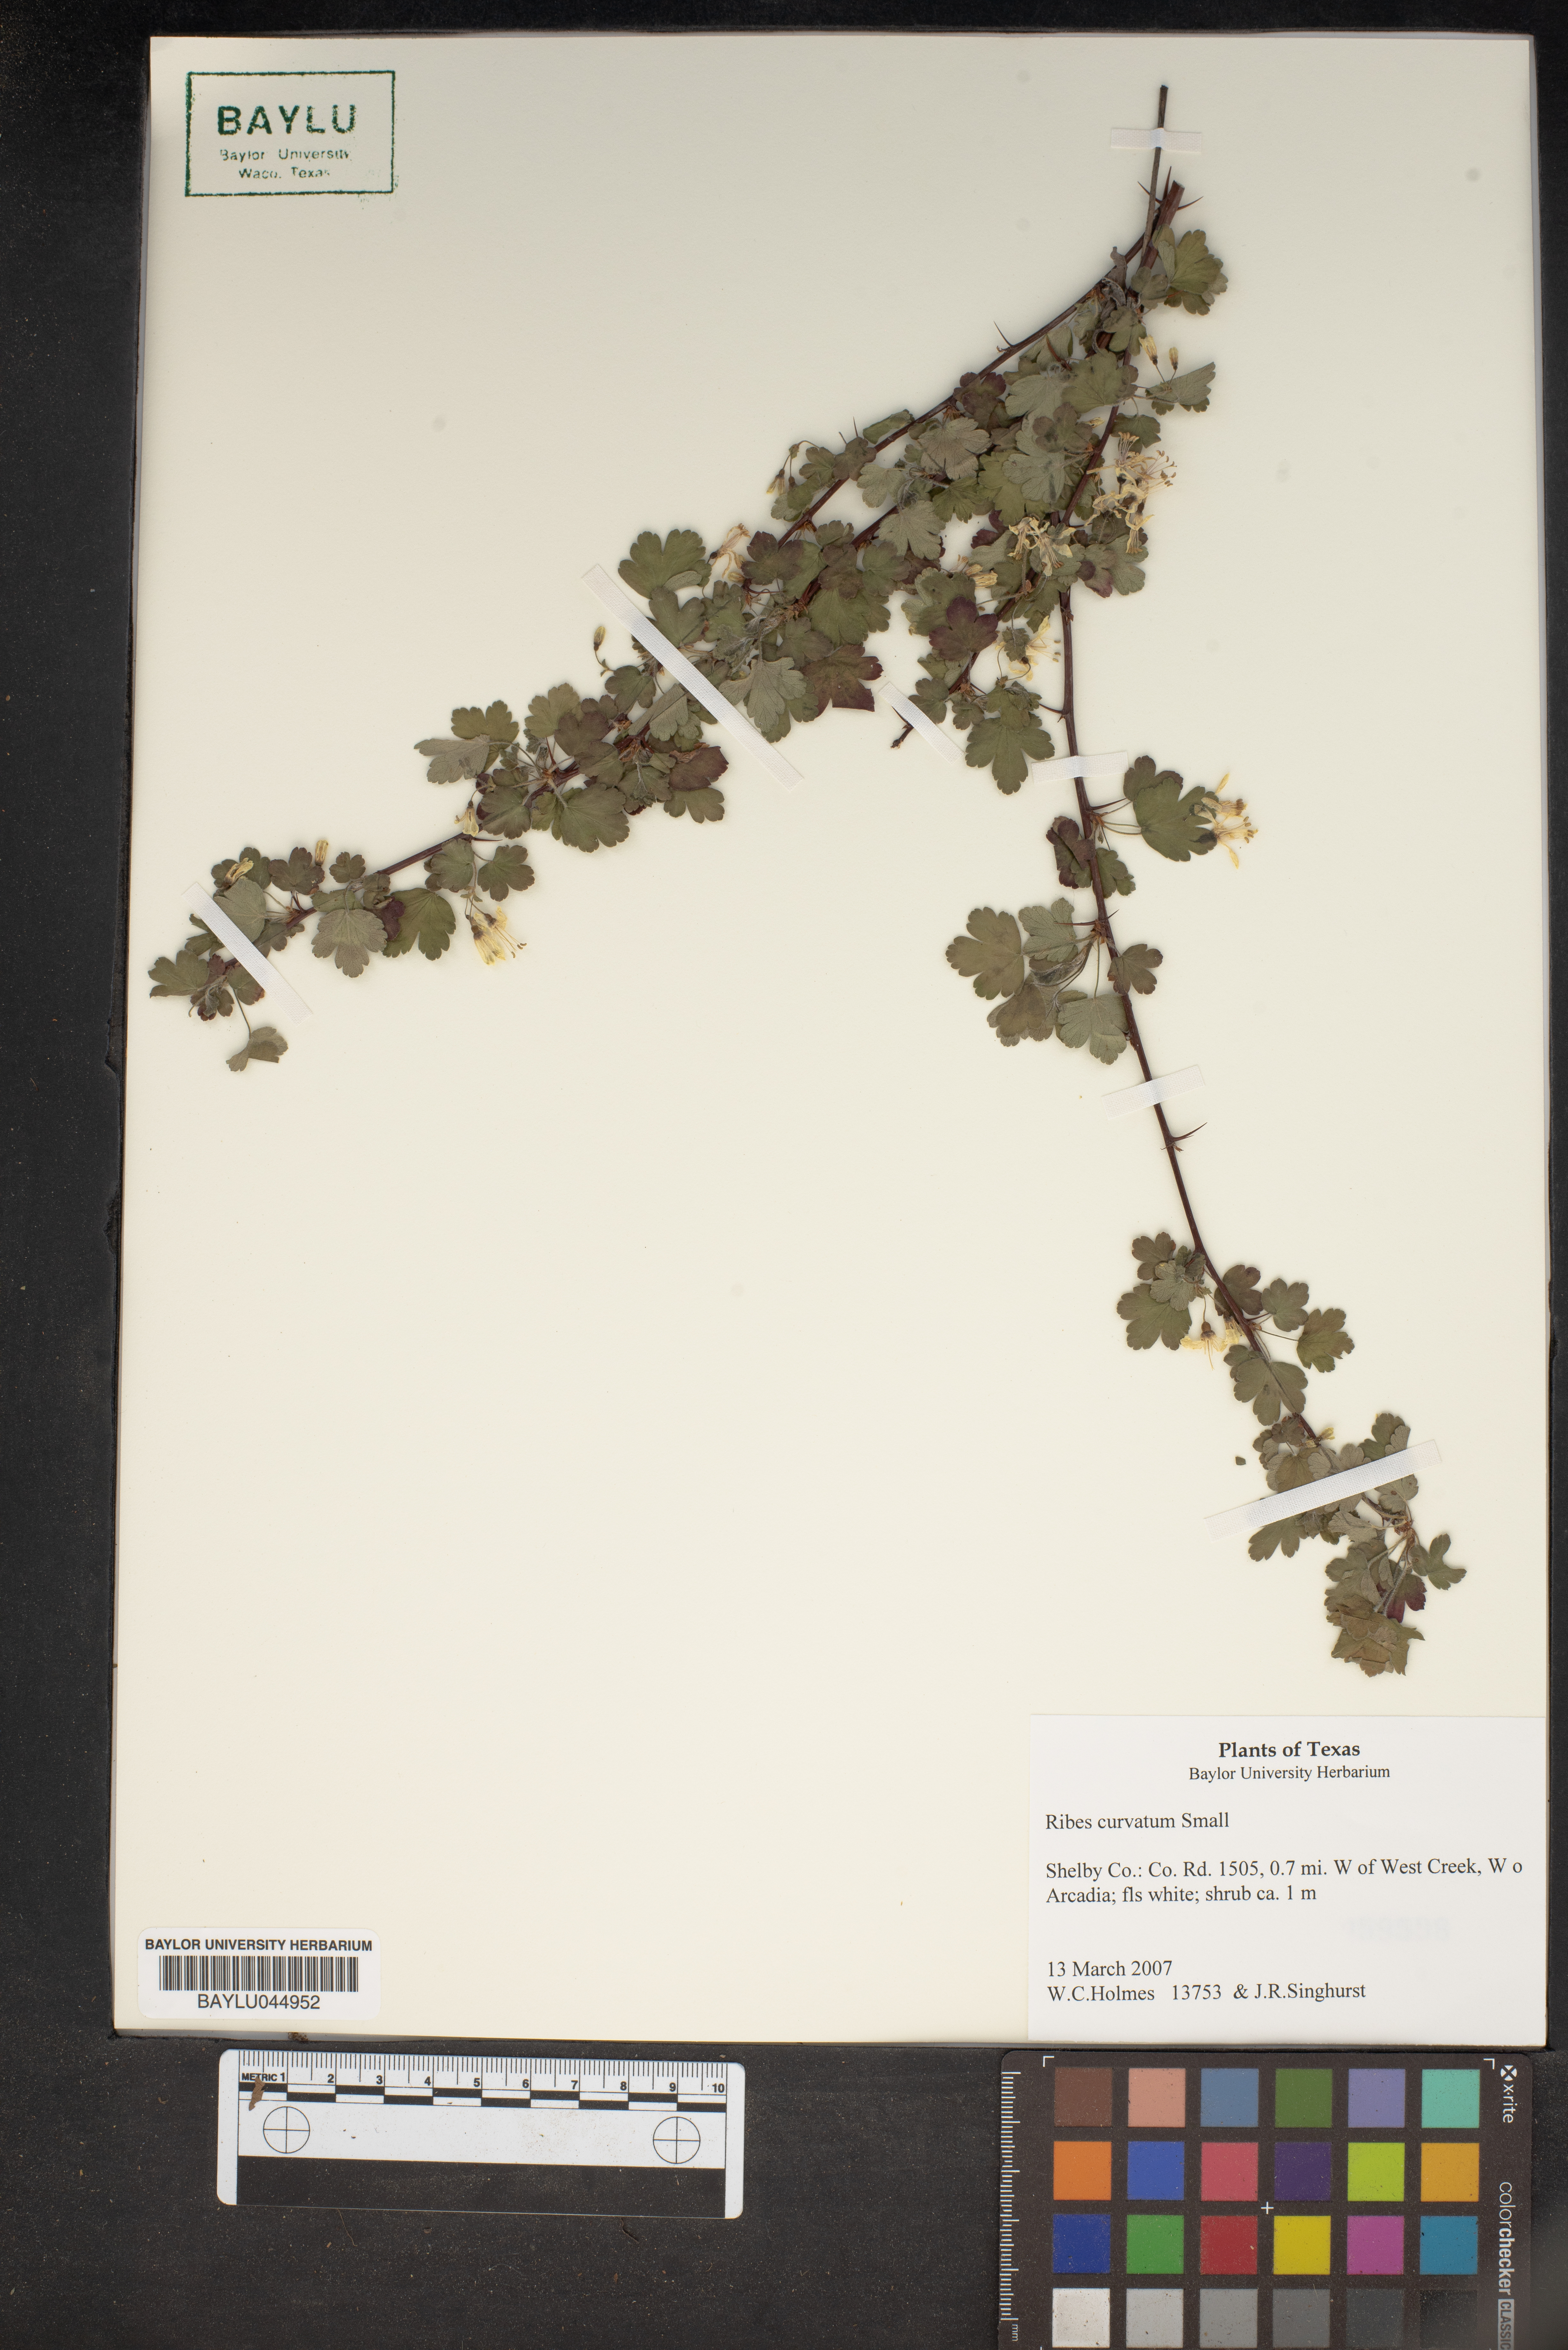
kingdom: Plantae
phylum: Tracheophyta
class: Magnoliopsida
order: Saxifragales
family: Grossulariaceae
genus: Ribes
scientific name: Ribes curvatum
